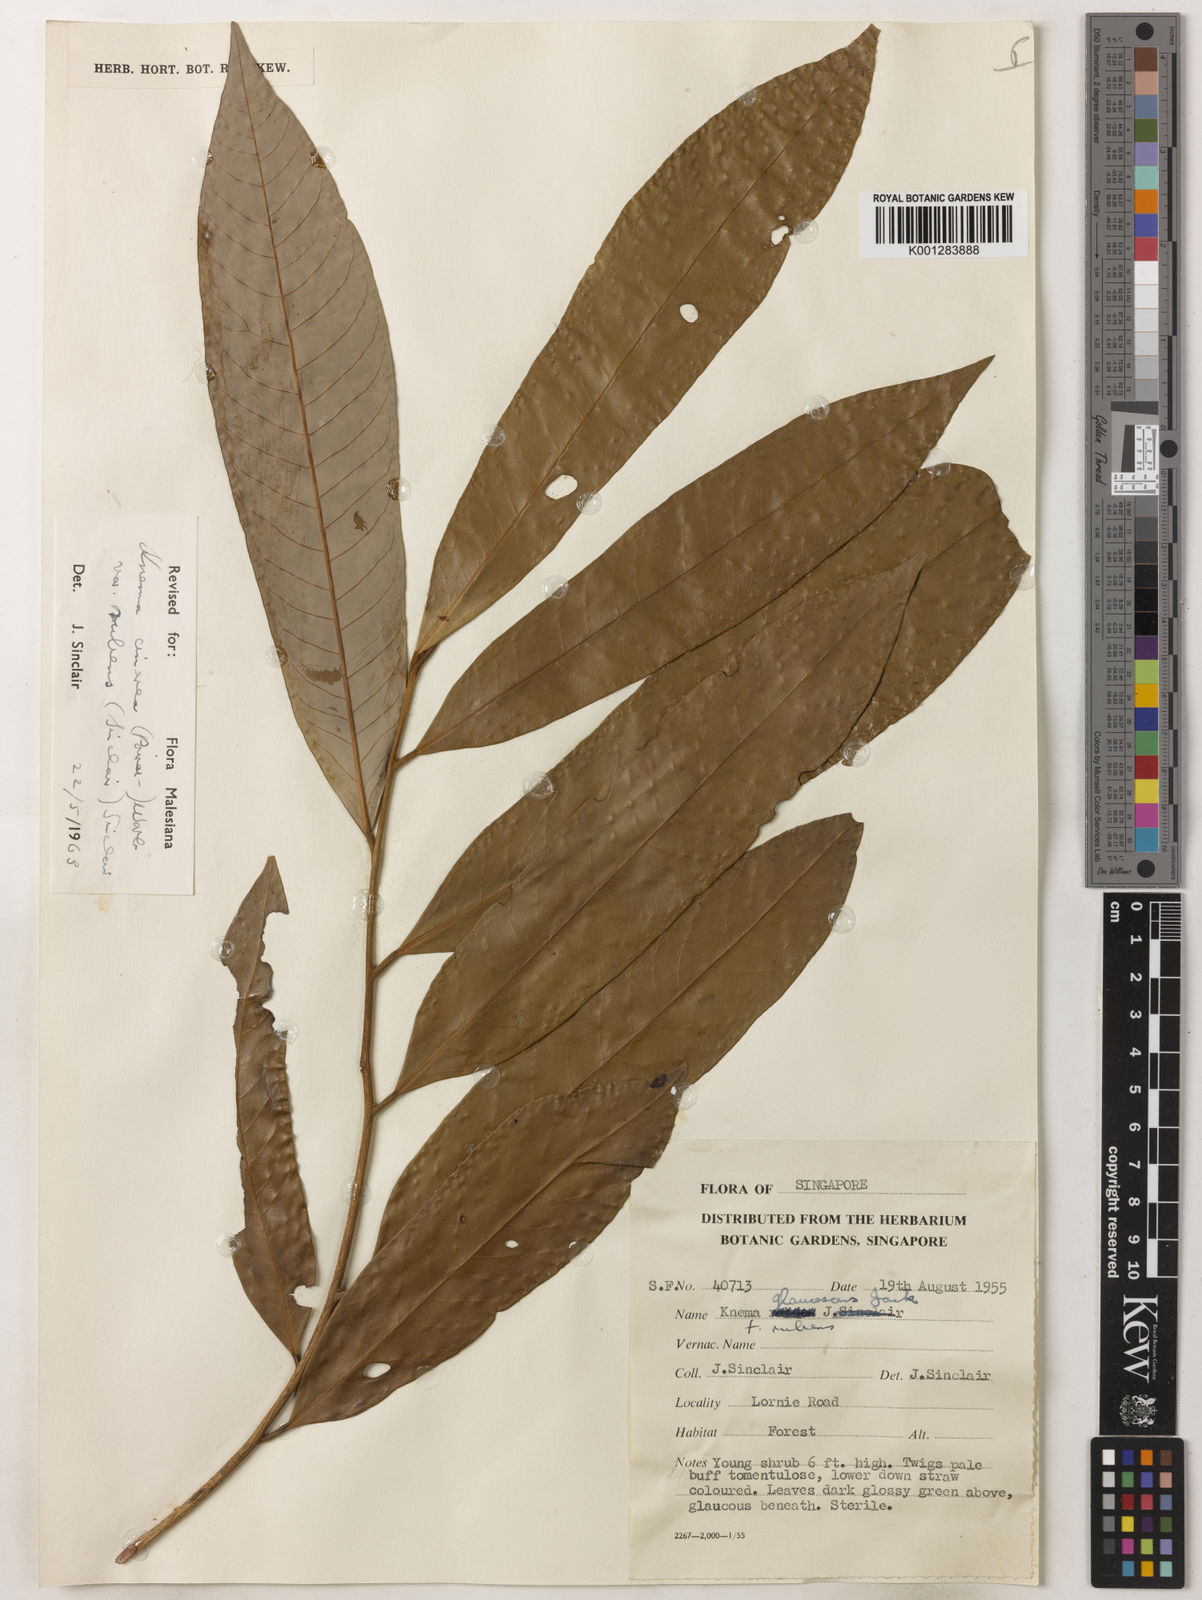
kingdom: Plantae
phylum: Tracheophyta
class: Magnoliopsida
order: Magnoliales
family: Myristicaceae
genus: Knema
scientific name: Knema
